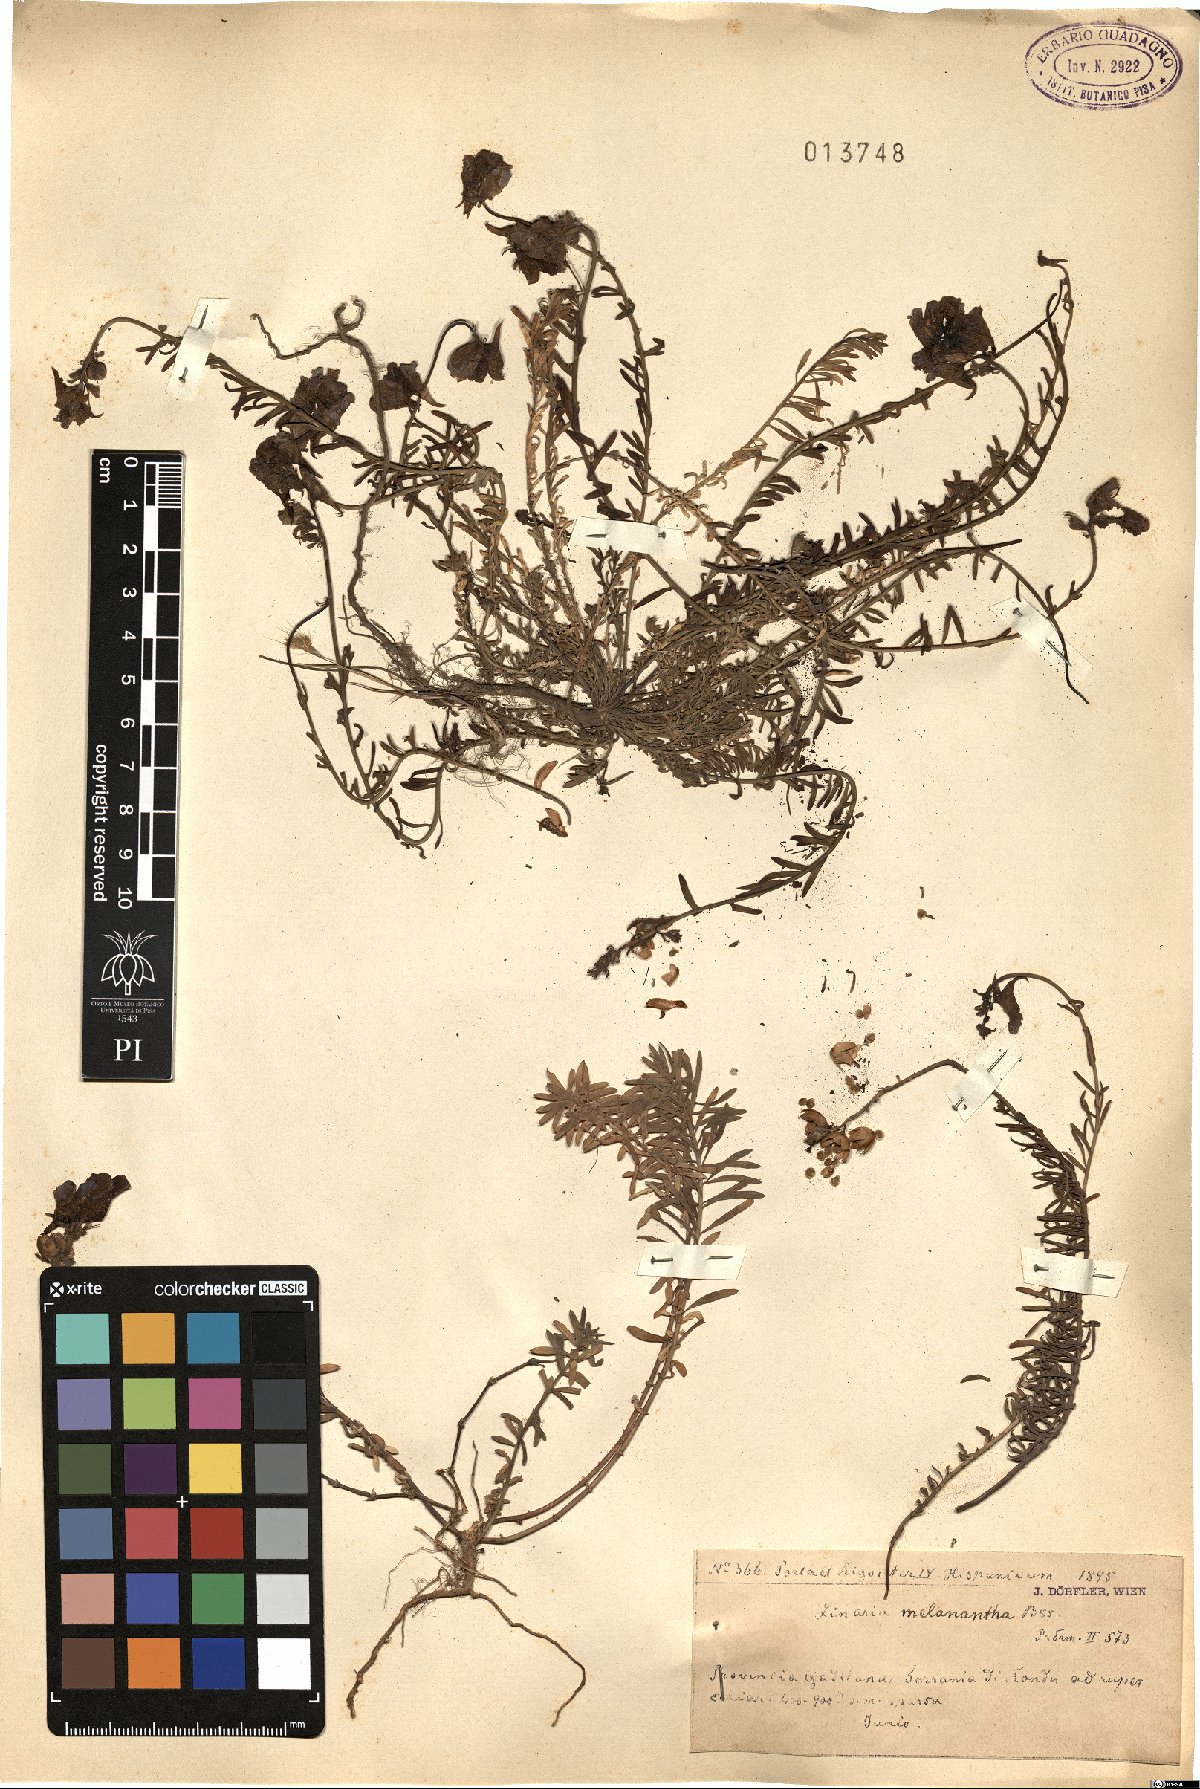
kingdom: Plantae
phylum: Tracheophyta
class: Magnoliopsida
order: Lamiales
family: Plantaginaceae
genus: Linaria
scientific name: Linaria
